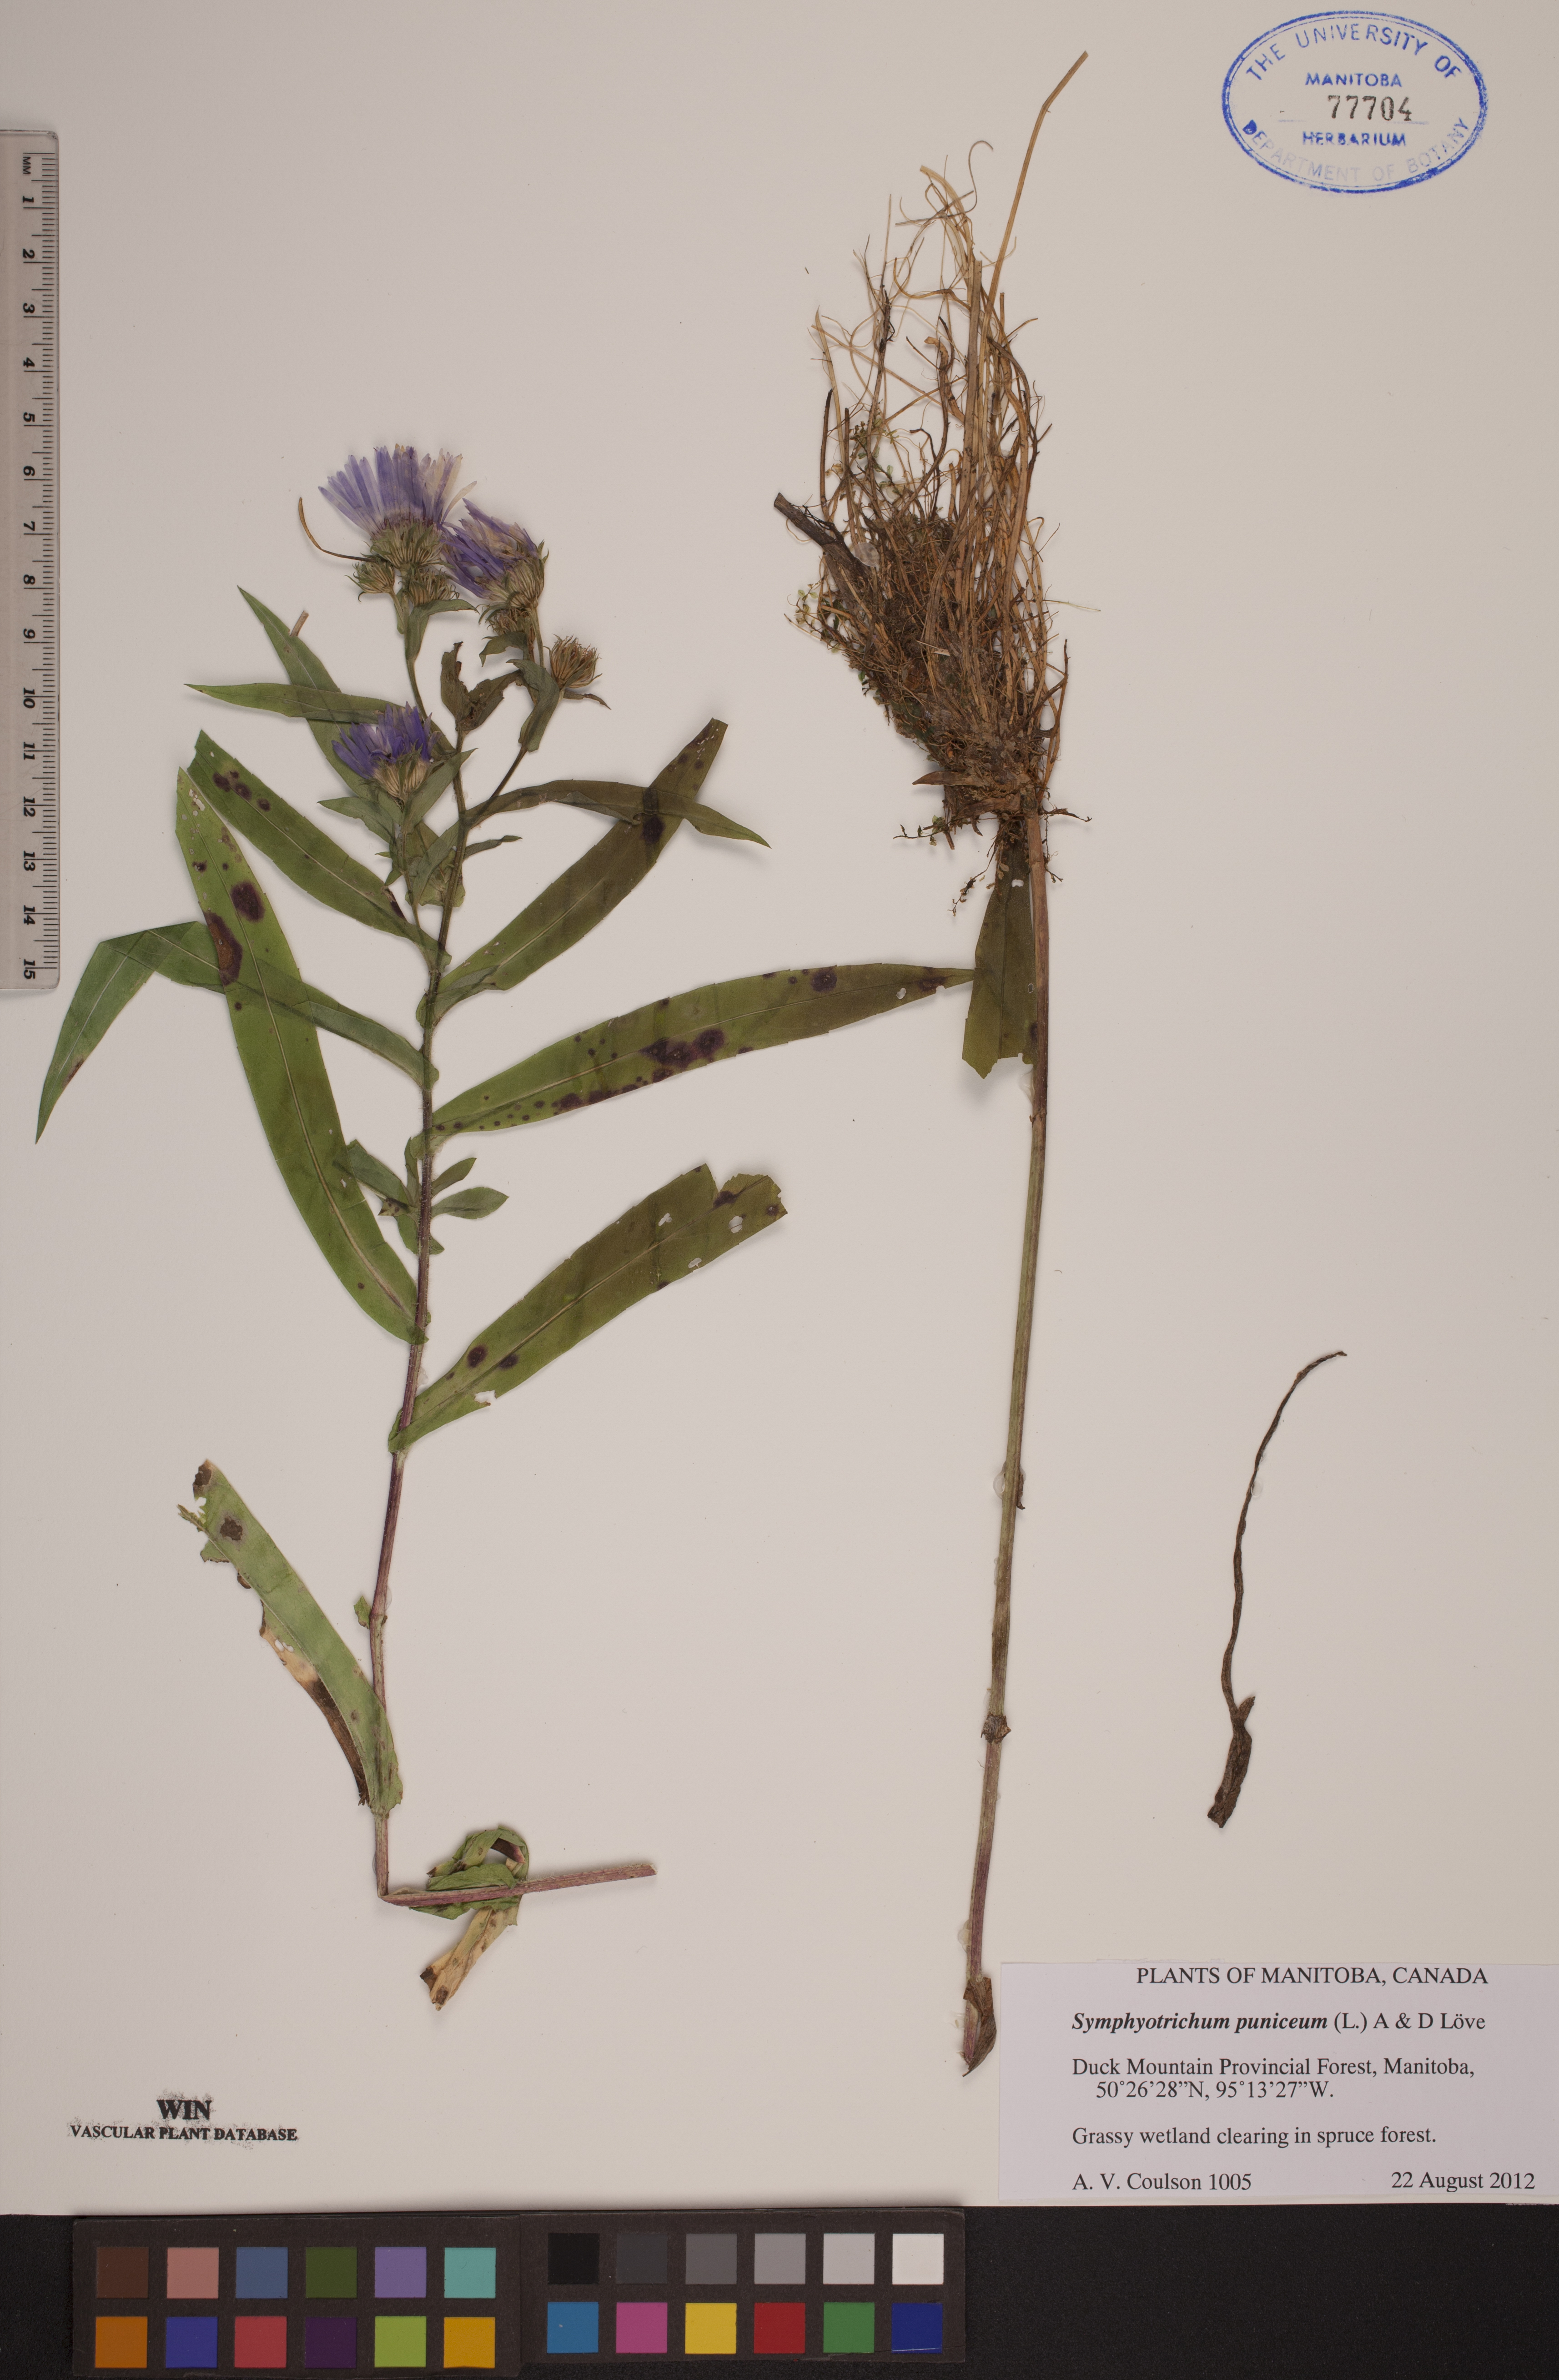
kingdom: Plantae
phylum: Tracheophyta
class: Magnoliopsida
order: Asterales
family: Asteraceae
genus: Symphyotrichum
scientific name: Symphyotrichum puniceum
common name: Bog aster
